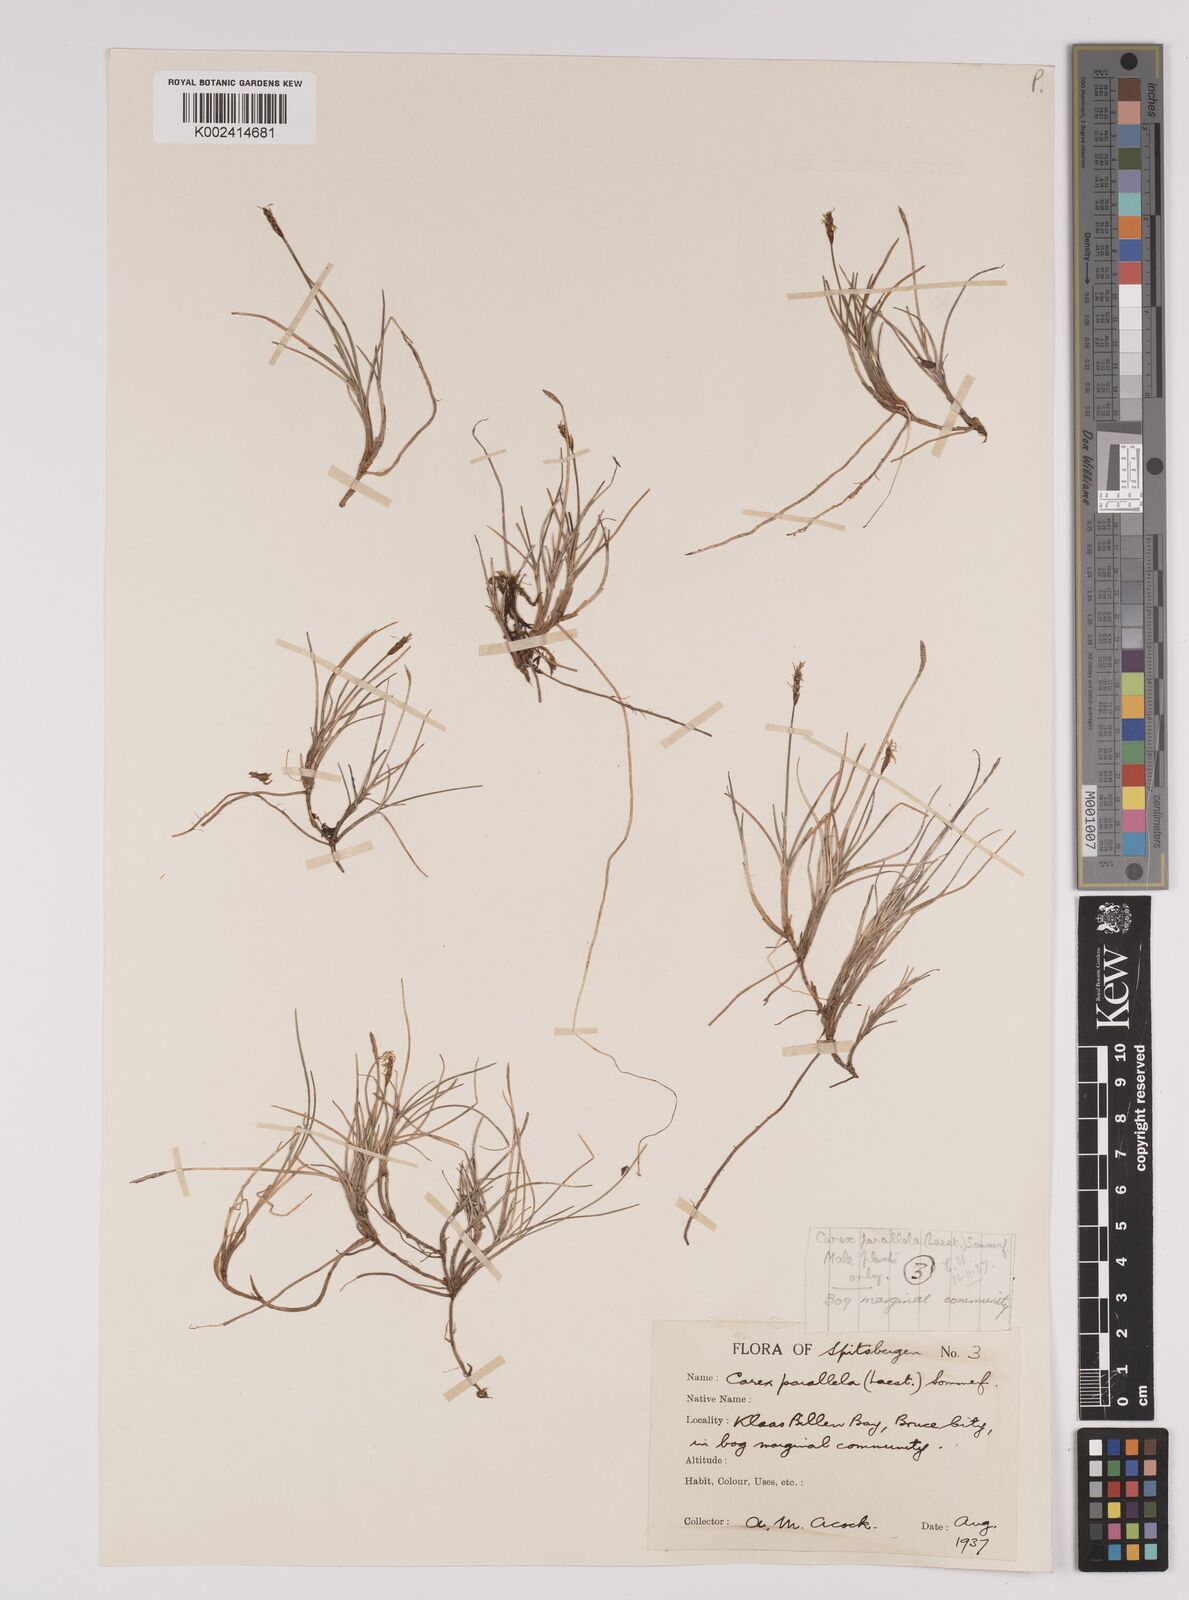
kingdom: Plantae
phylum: Tracheophyta
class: Liliopsida
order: Poales
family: Cyperaceae
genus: Carex
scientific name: Carex parallela
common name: Parallel sedge
